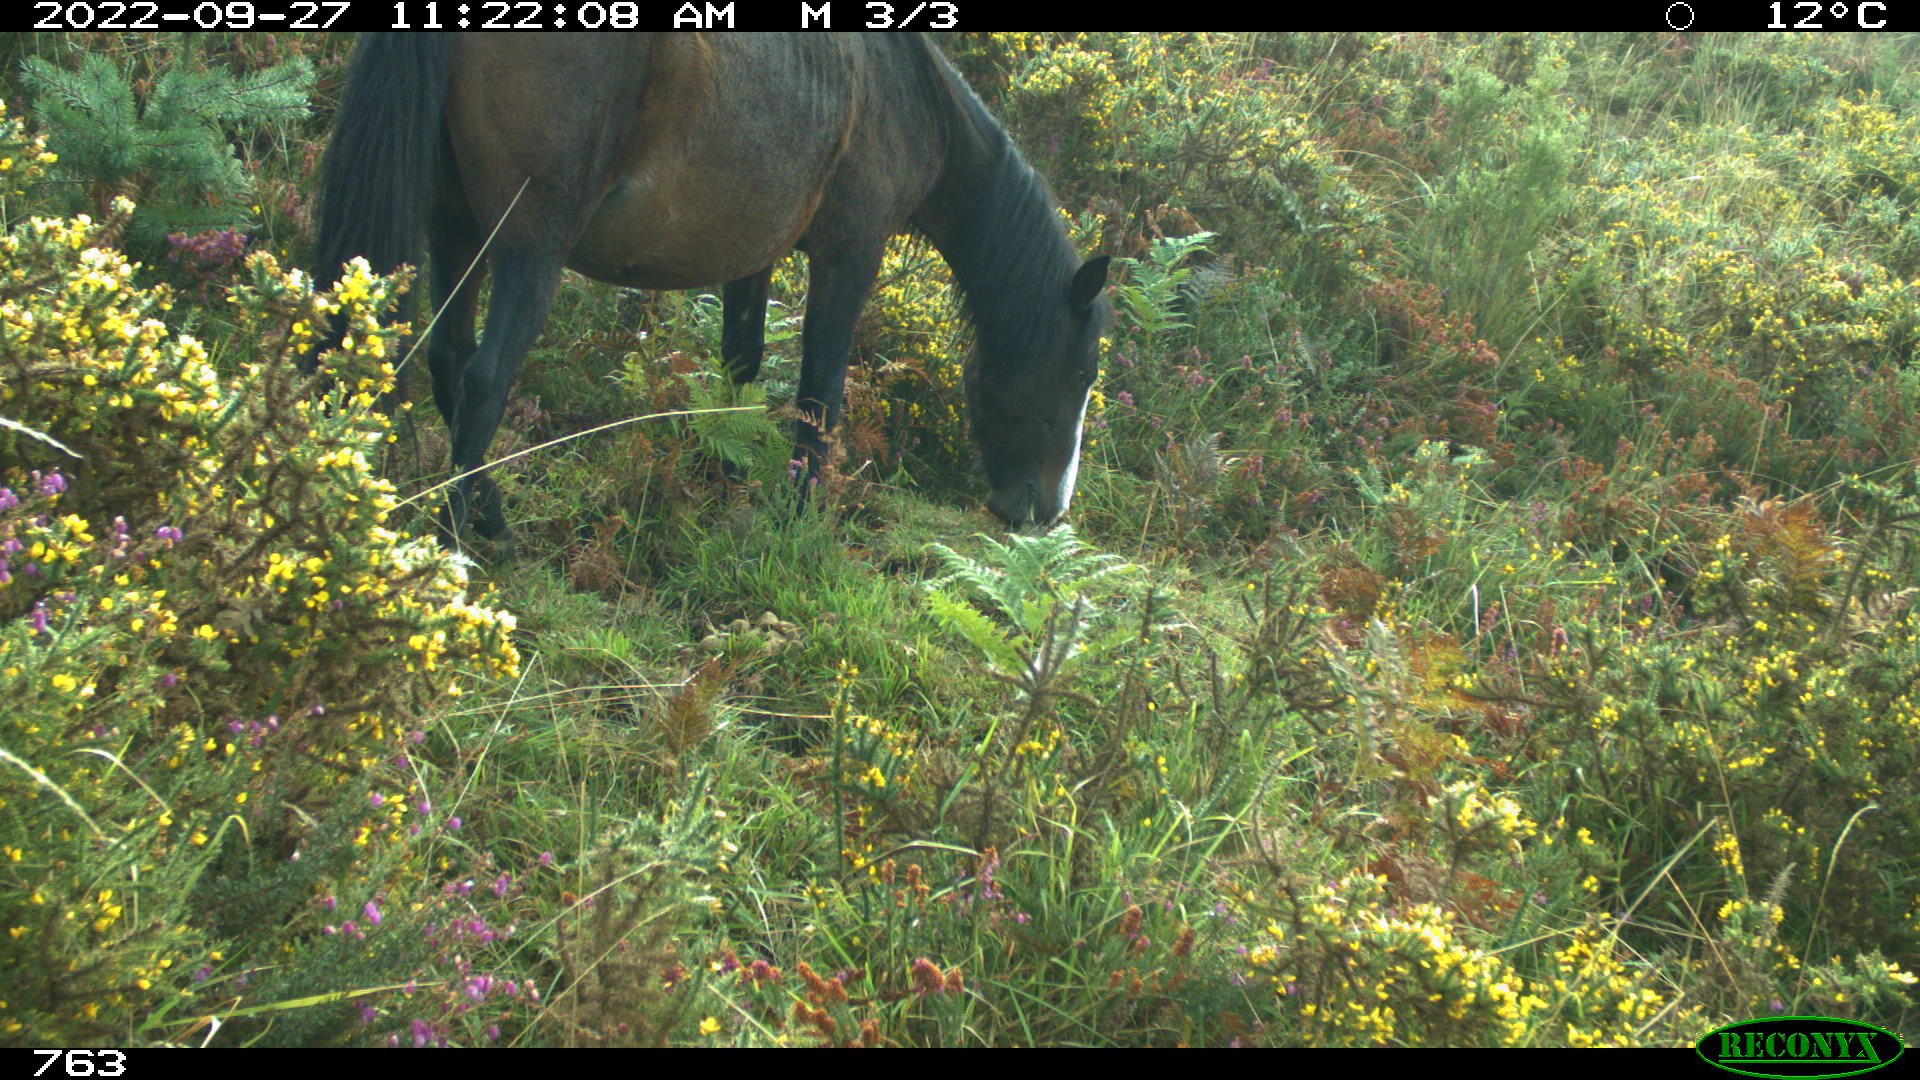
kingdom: Animalia
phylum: Chordata
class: Mammalia
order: Perissodactyla
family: Equidae
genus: Equus
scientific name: Equus caballus
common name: Horse
